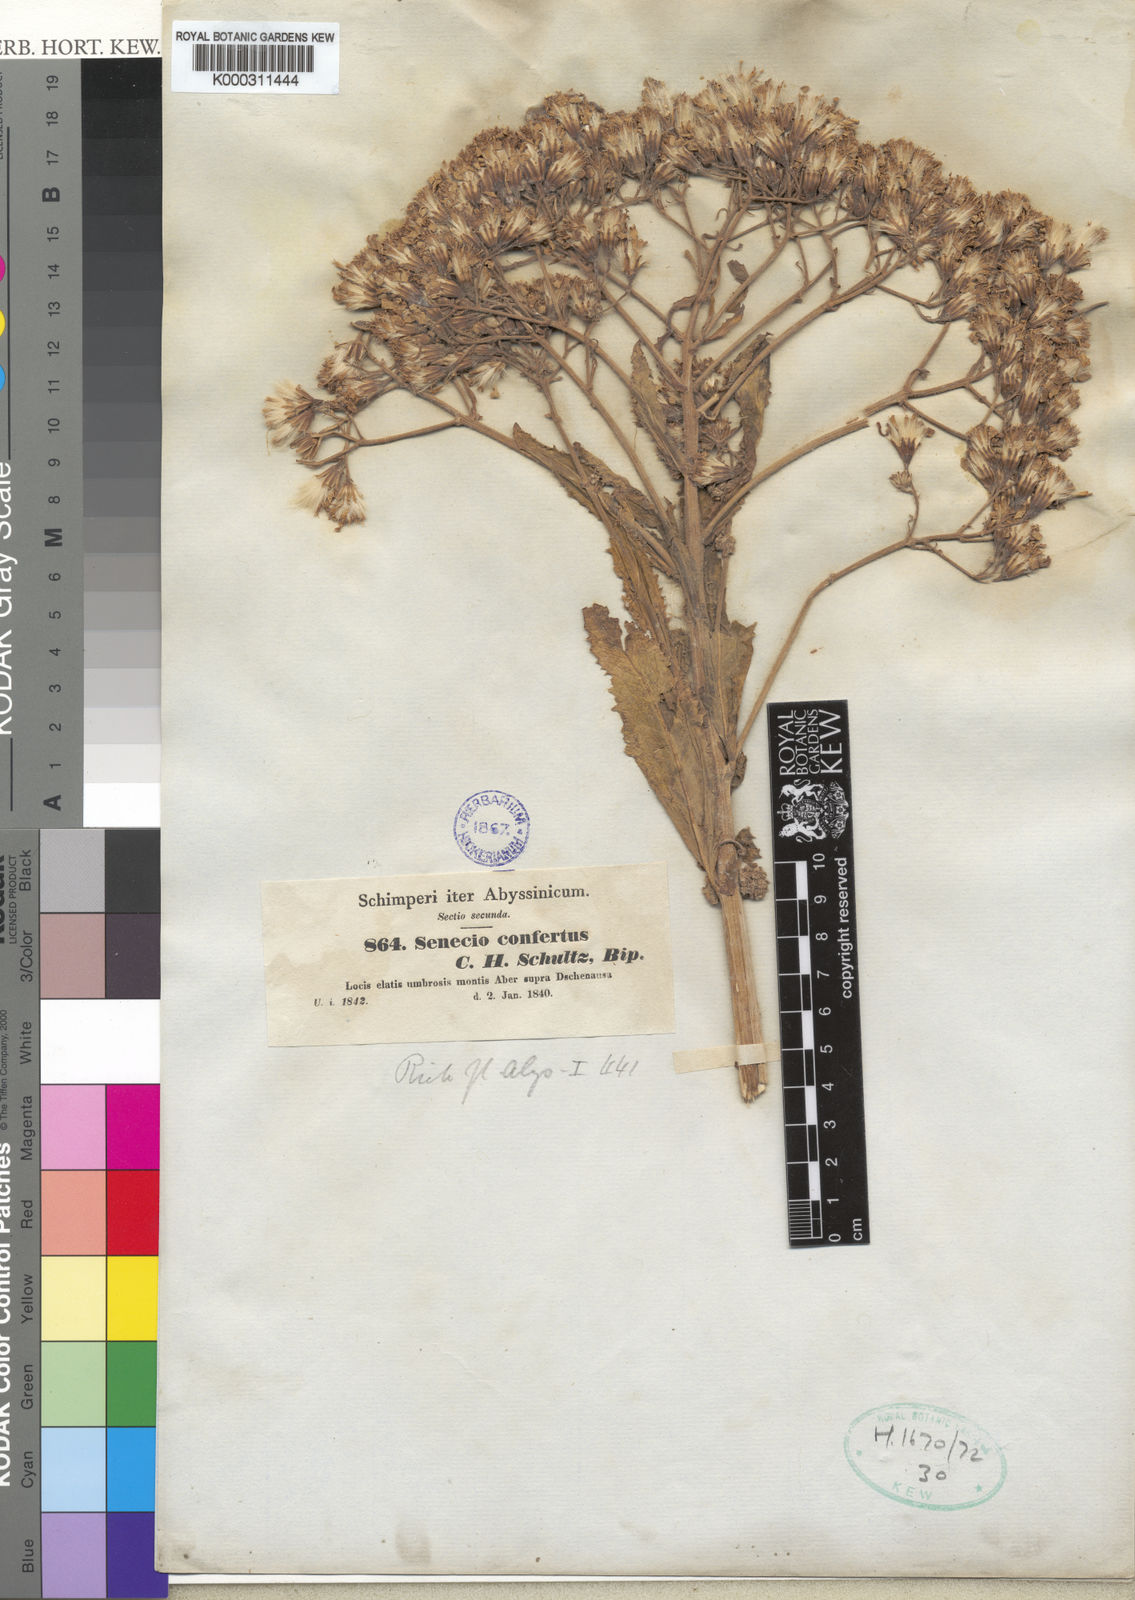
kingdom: Plantae
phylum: Tracheophyta
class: Magnoliopsida
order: Asterales
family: Asteraceae
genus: Senecio
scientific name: Senecio confertus
